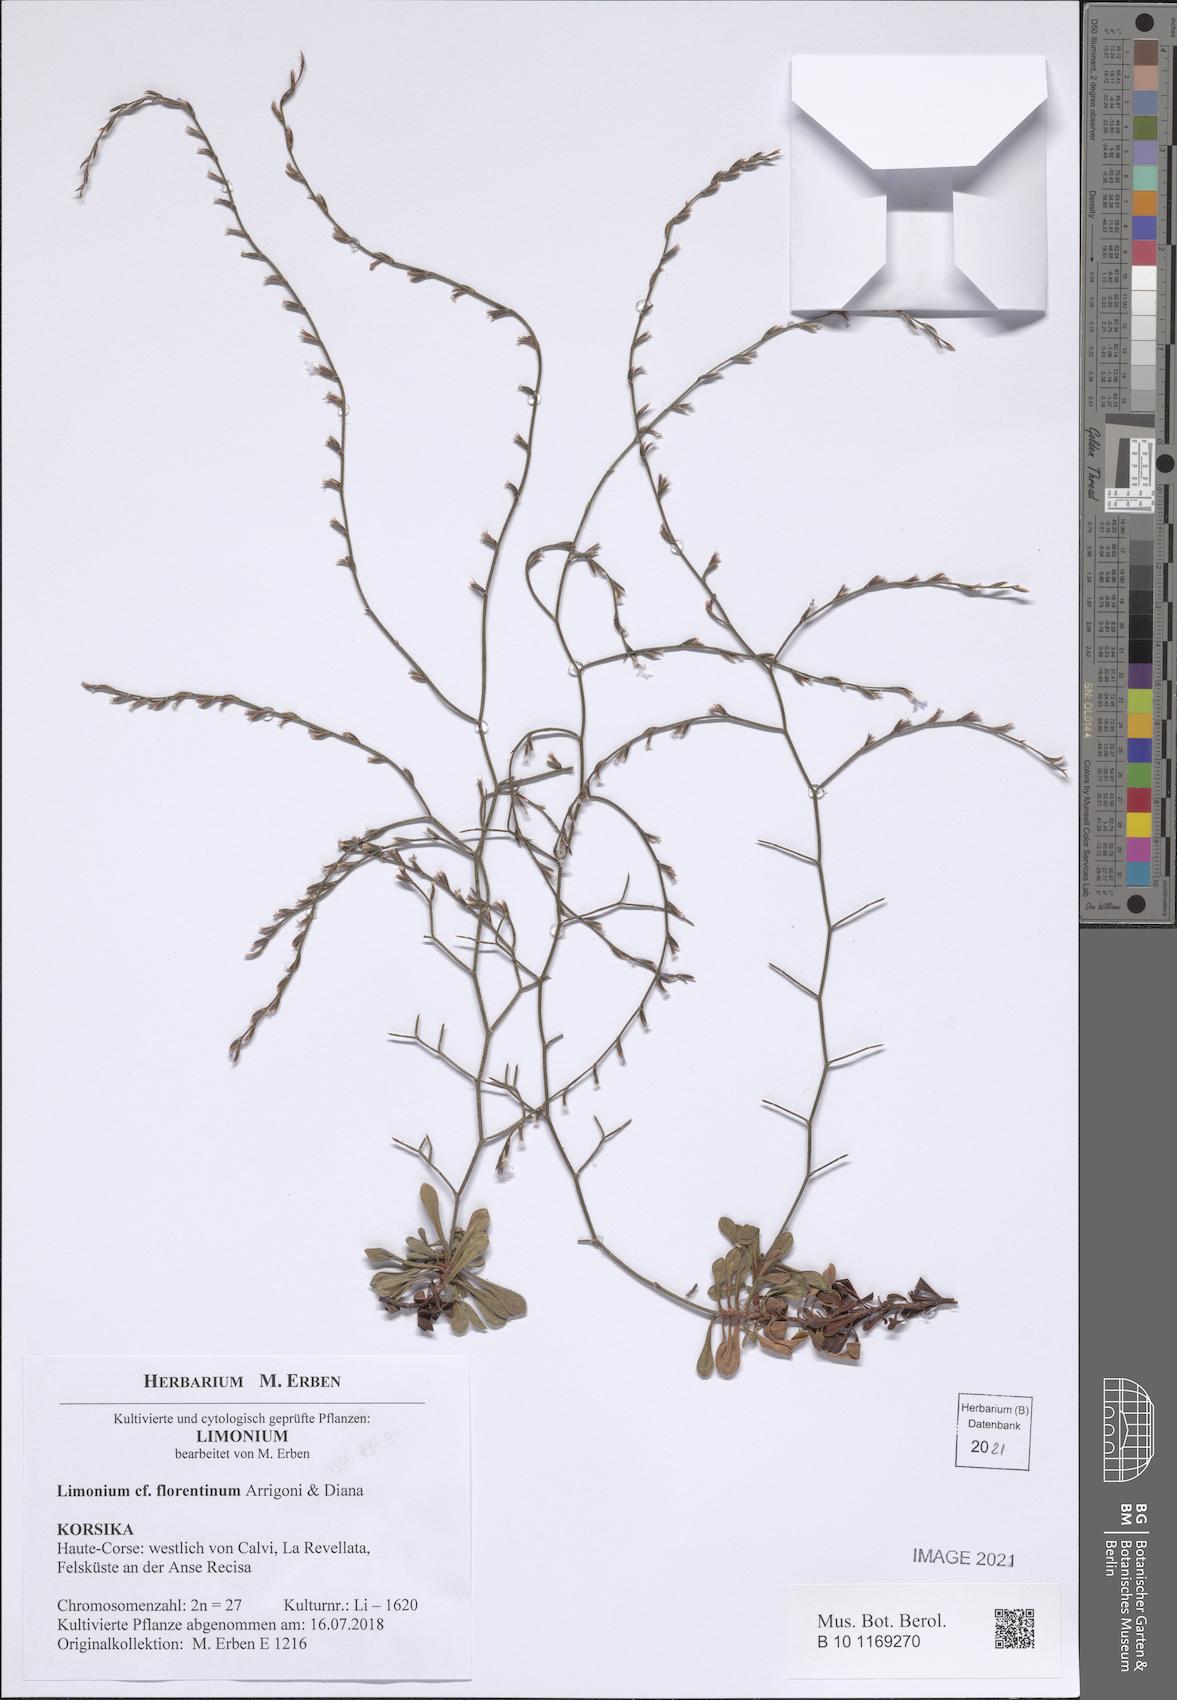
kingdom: Plantae
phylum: Tracheophyta
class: Magnoliopsida
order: Caryophyllales
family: Plumbaginaceae
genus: Limonium
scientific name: Limonium florentinum
